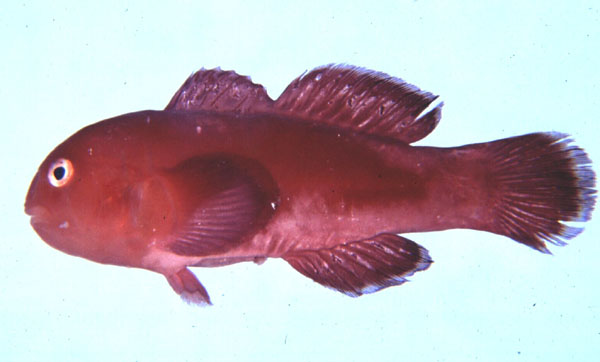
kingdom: Animalia
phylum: Chordata
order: Perciformes
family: Gobiidae
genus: Gobiodon
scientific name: Gobiodon rivulatus
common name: Rippled coralgoby
